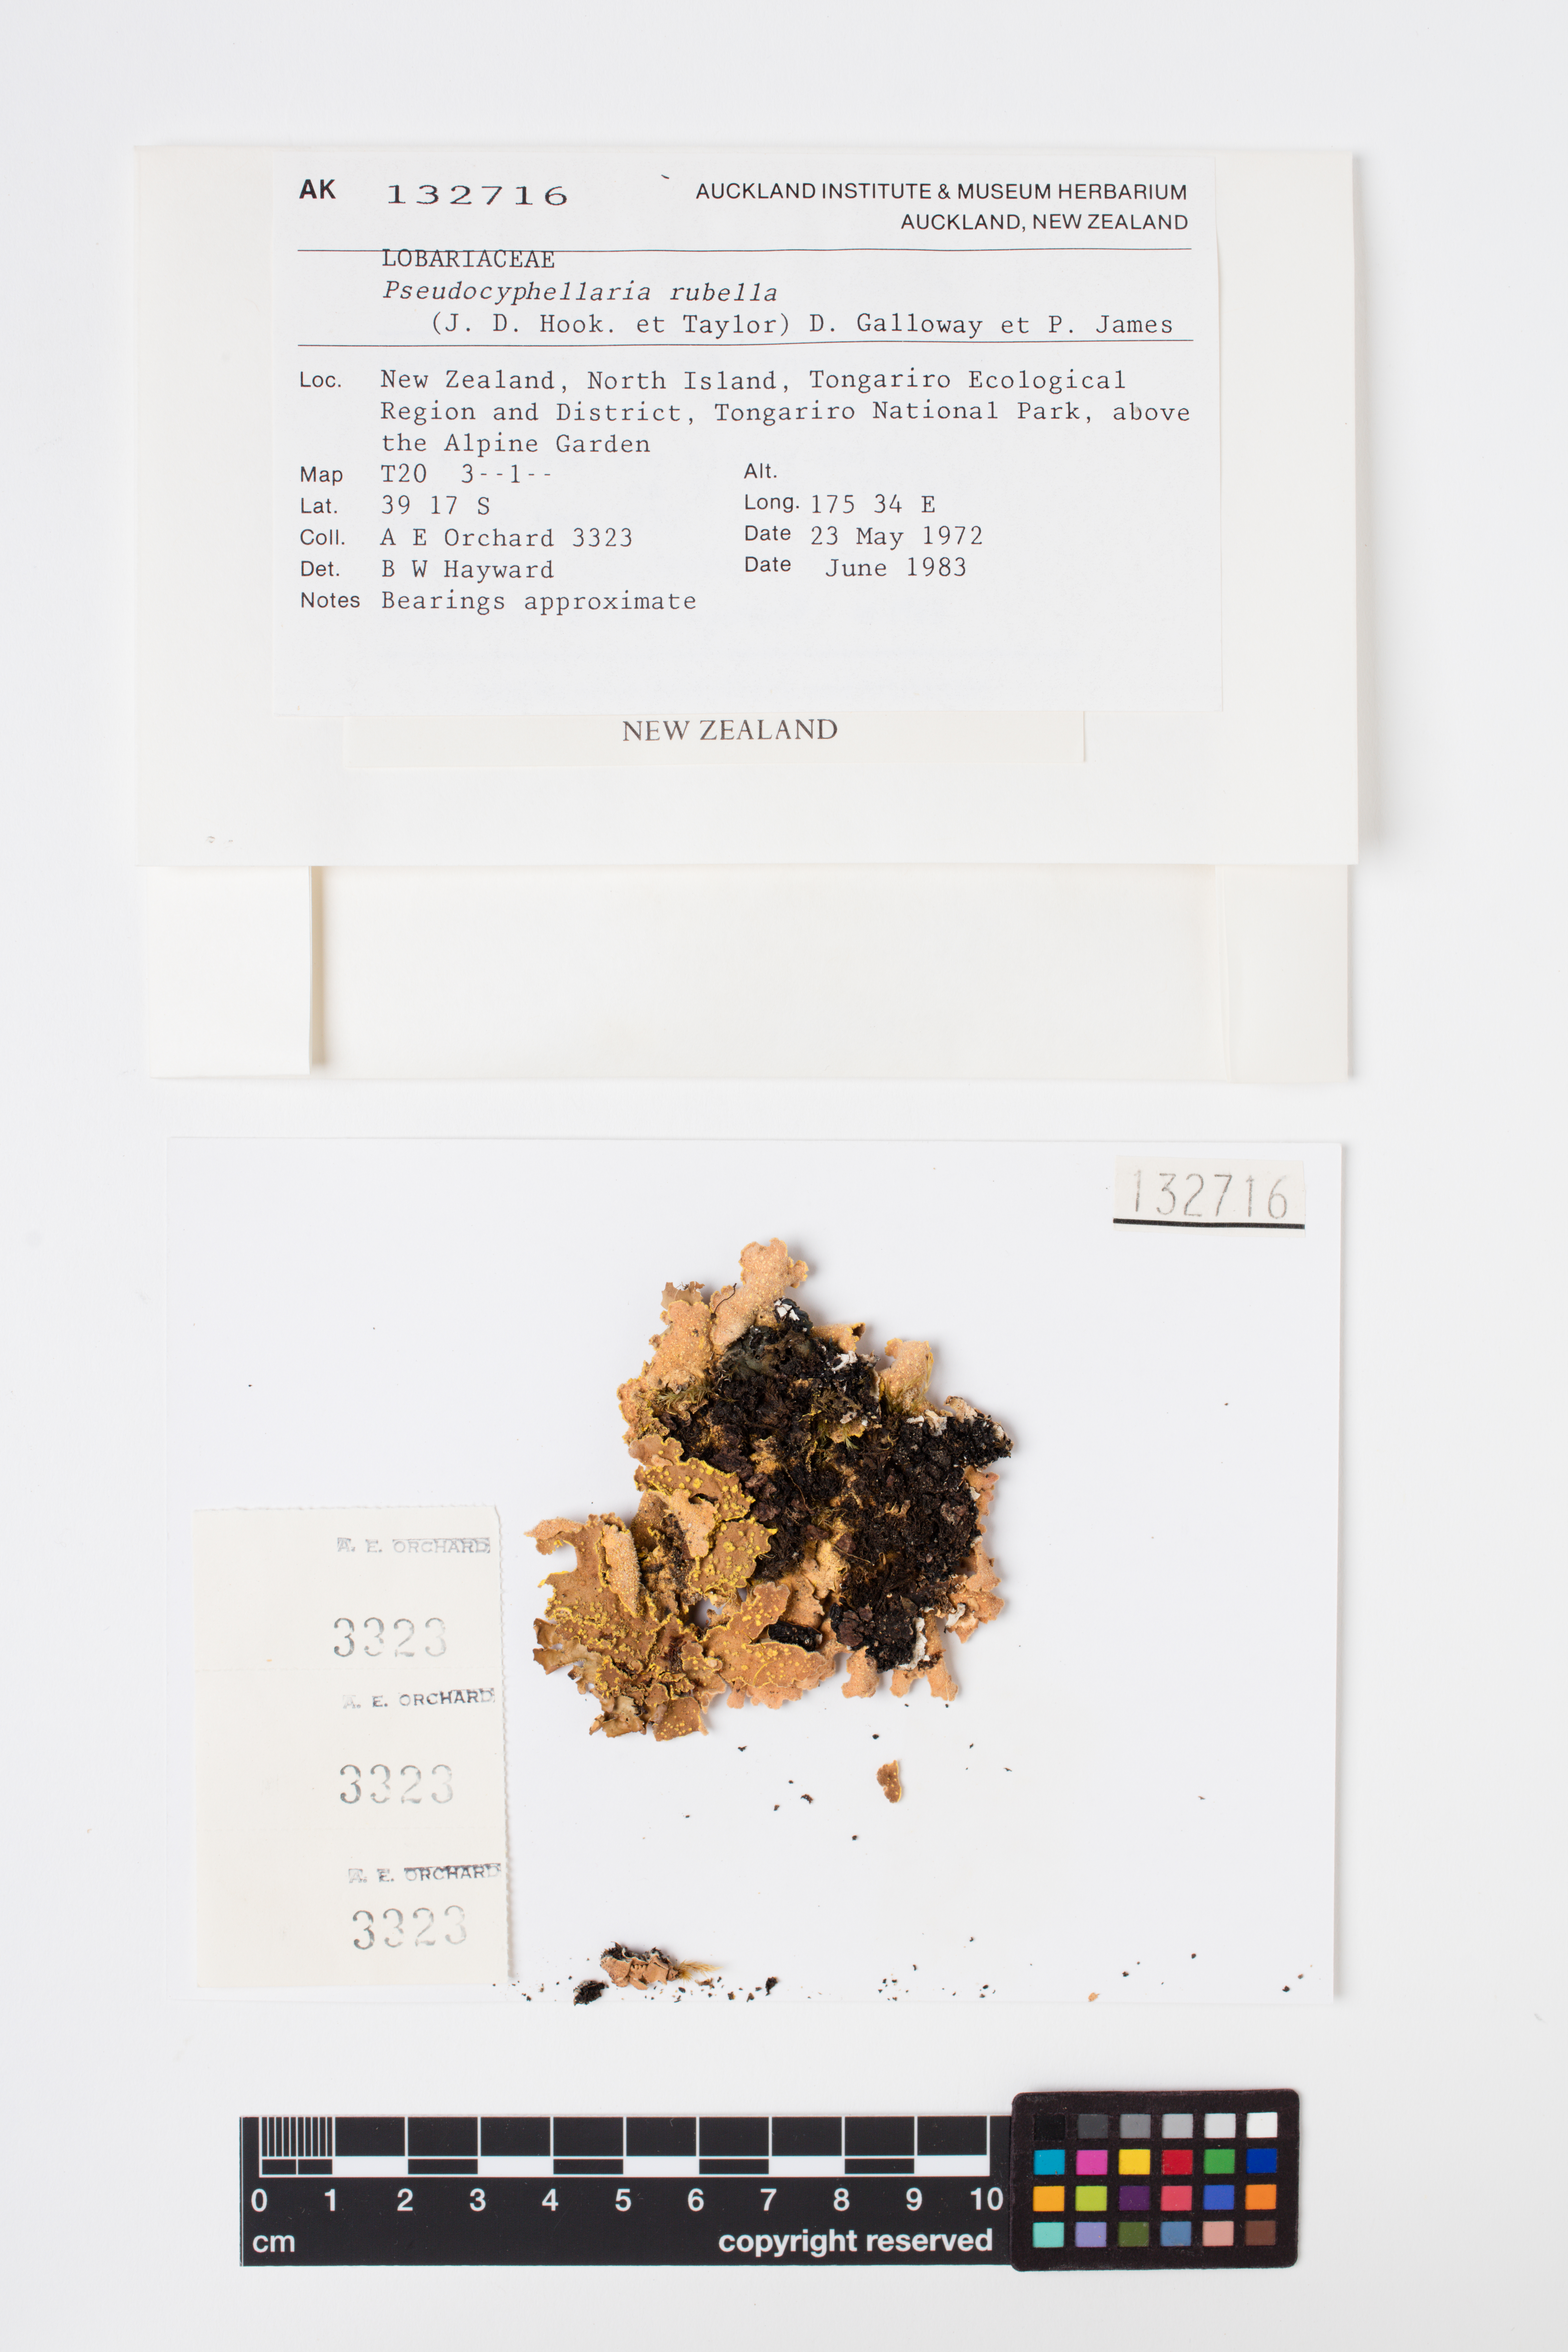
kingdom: Fungi
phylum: Ascomycota
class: Lecanoromycetes
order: Peltigerales
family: Lobariaceae
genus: Pseudocyphellaria
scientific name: Pseudocyphellaria rubella
